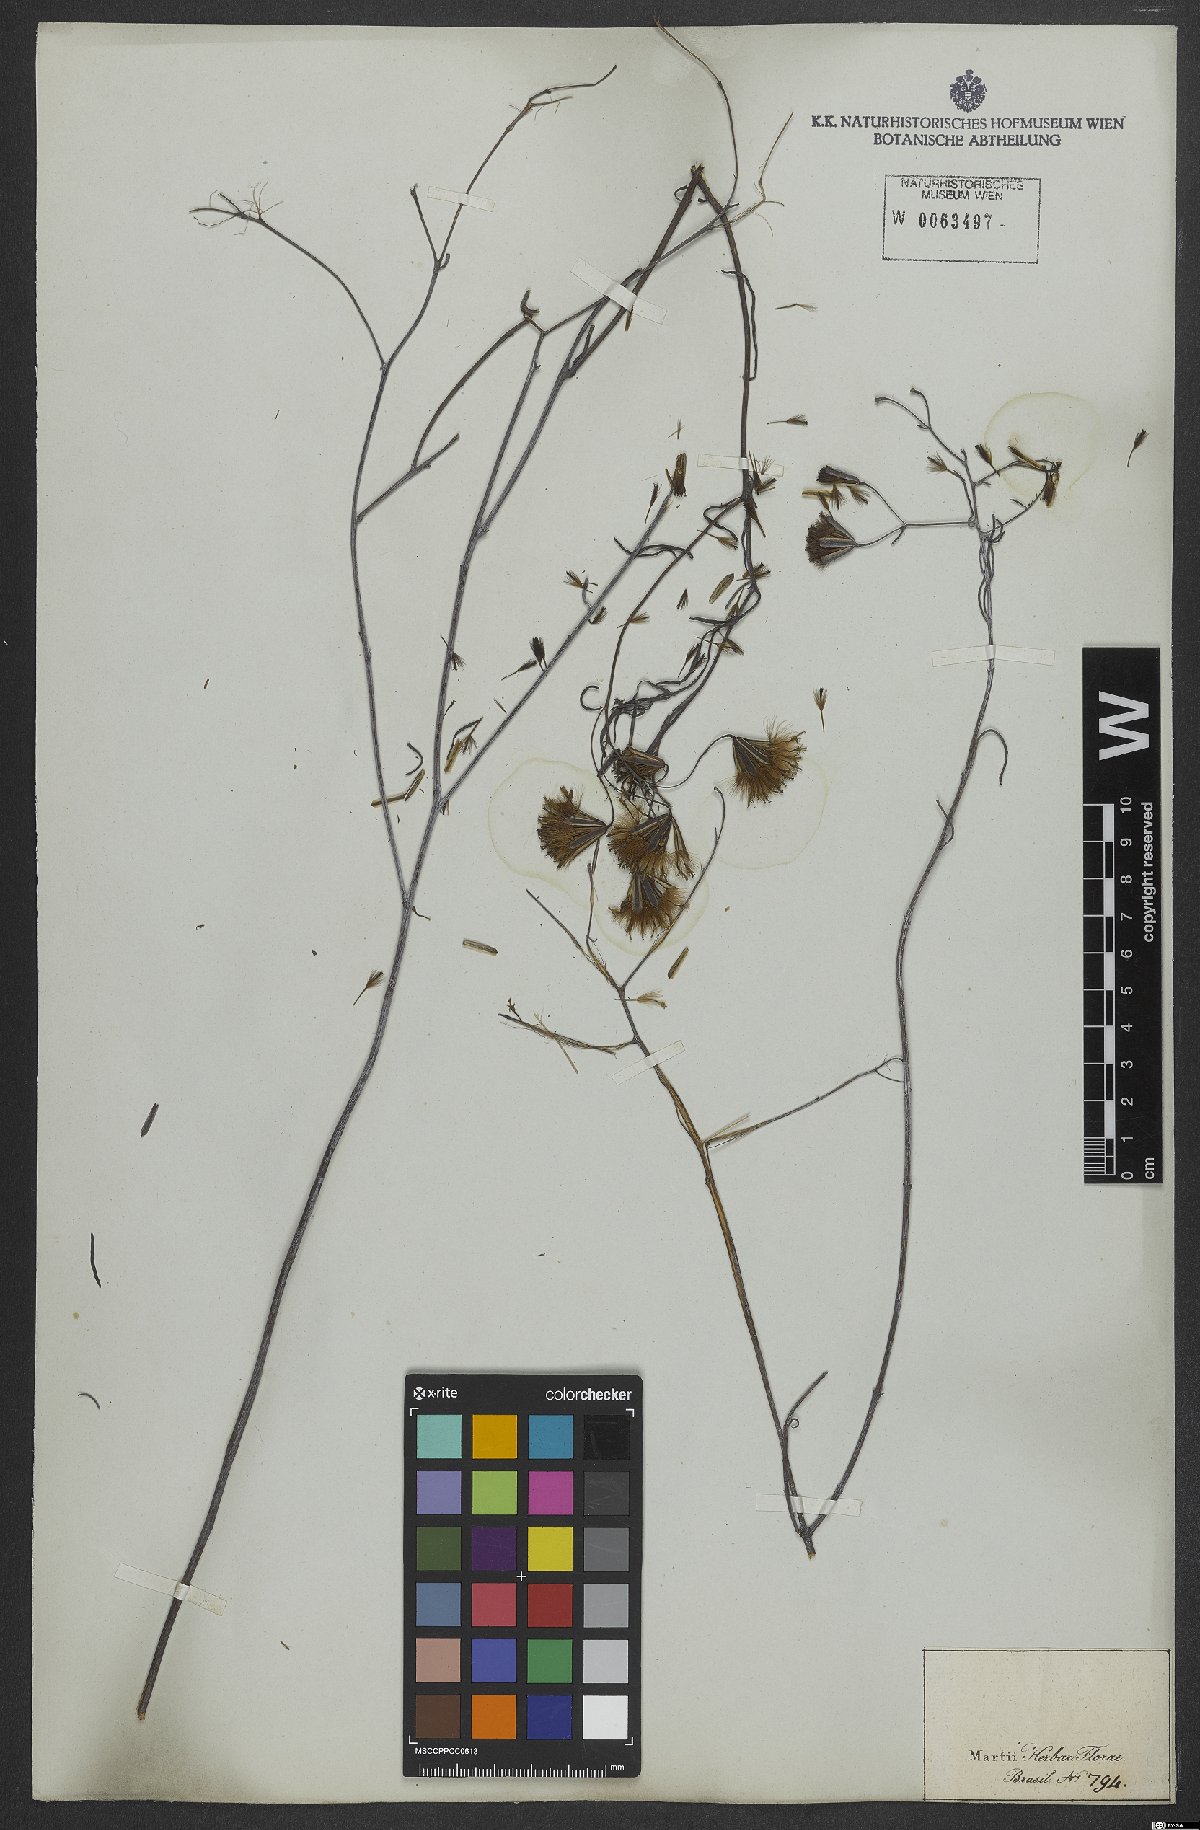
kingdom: Plantae
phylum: Tracheophyta
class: Magnoliopsida
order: Asterales
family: Asteraceae
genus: Porophyllum
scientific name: Porophyllum obscurum
